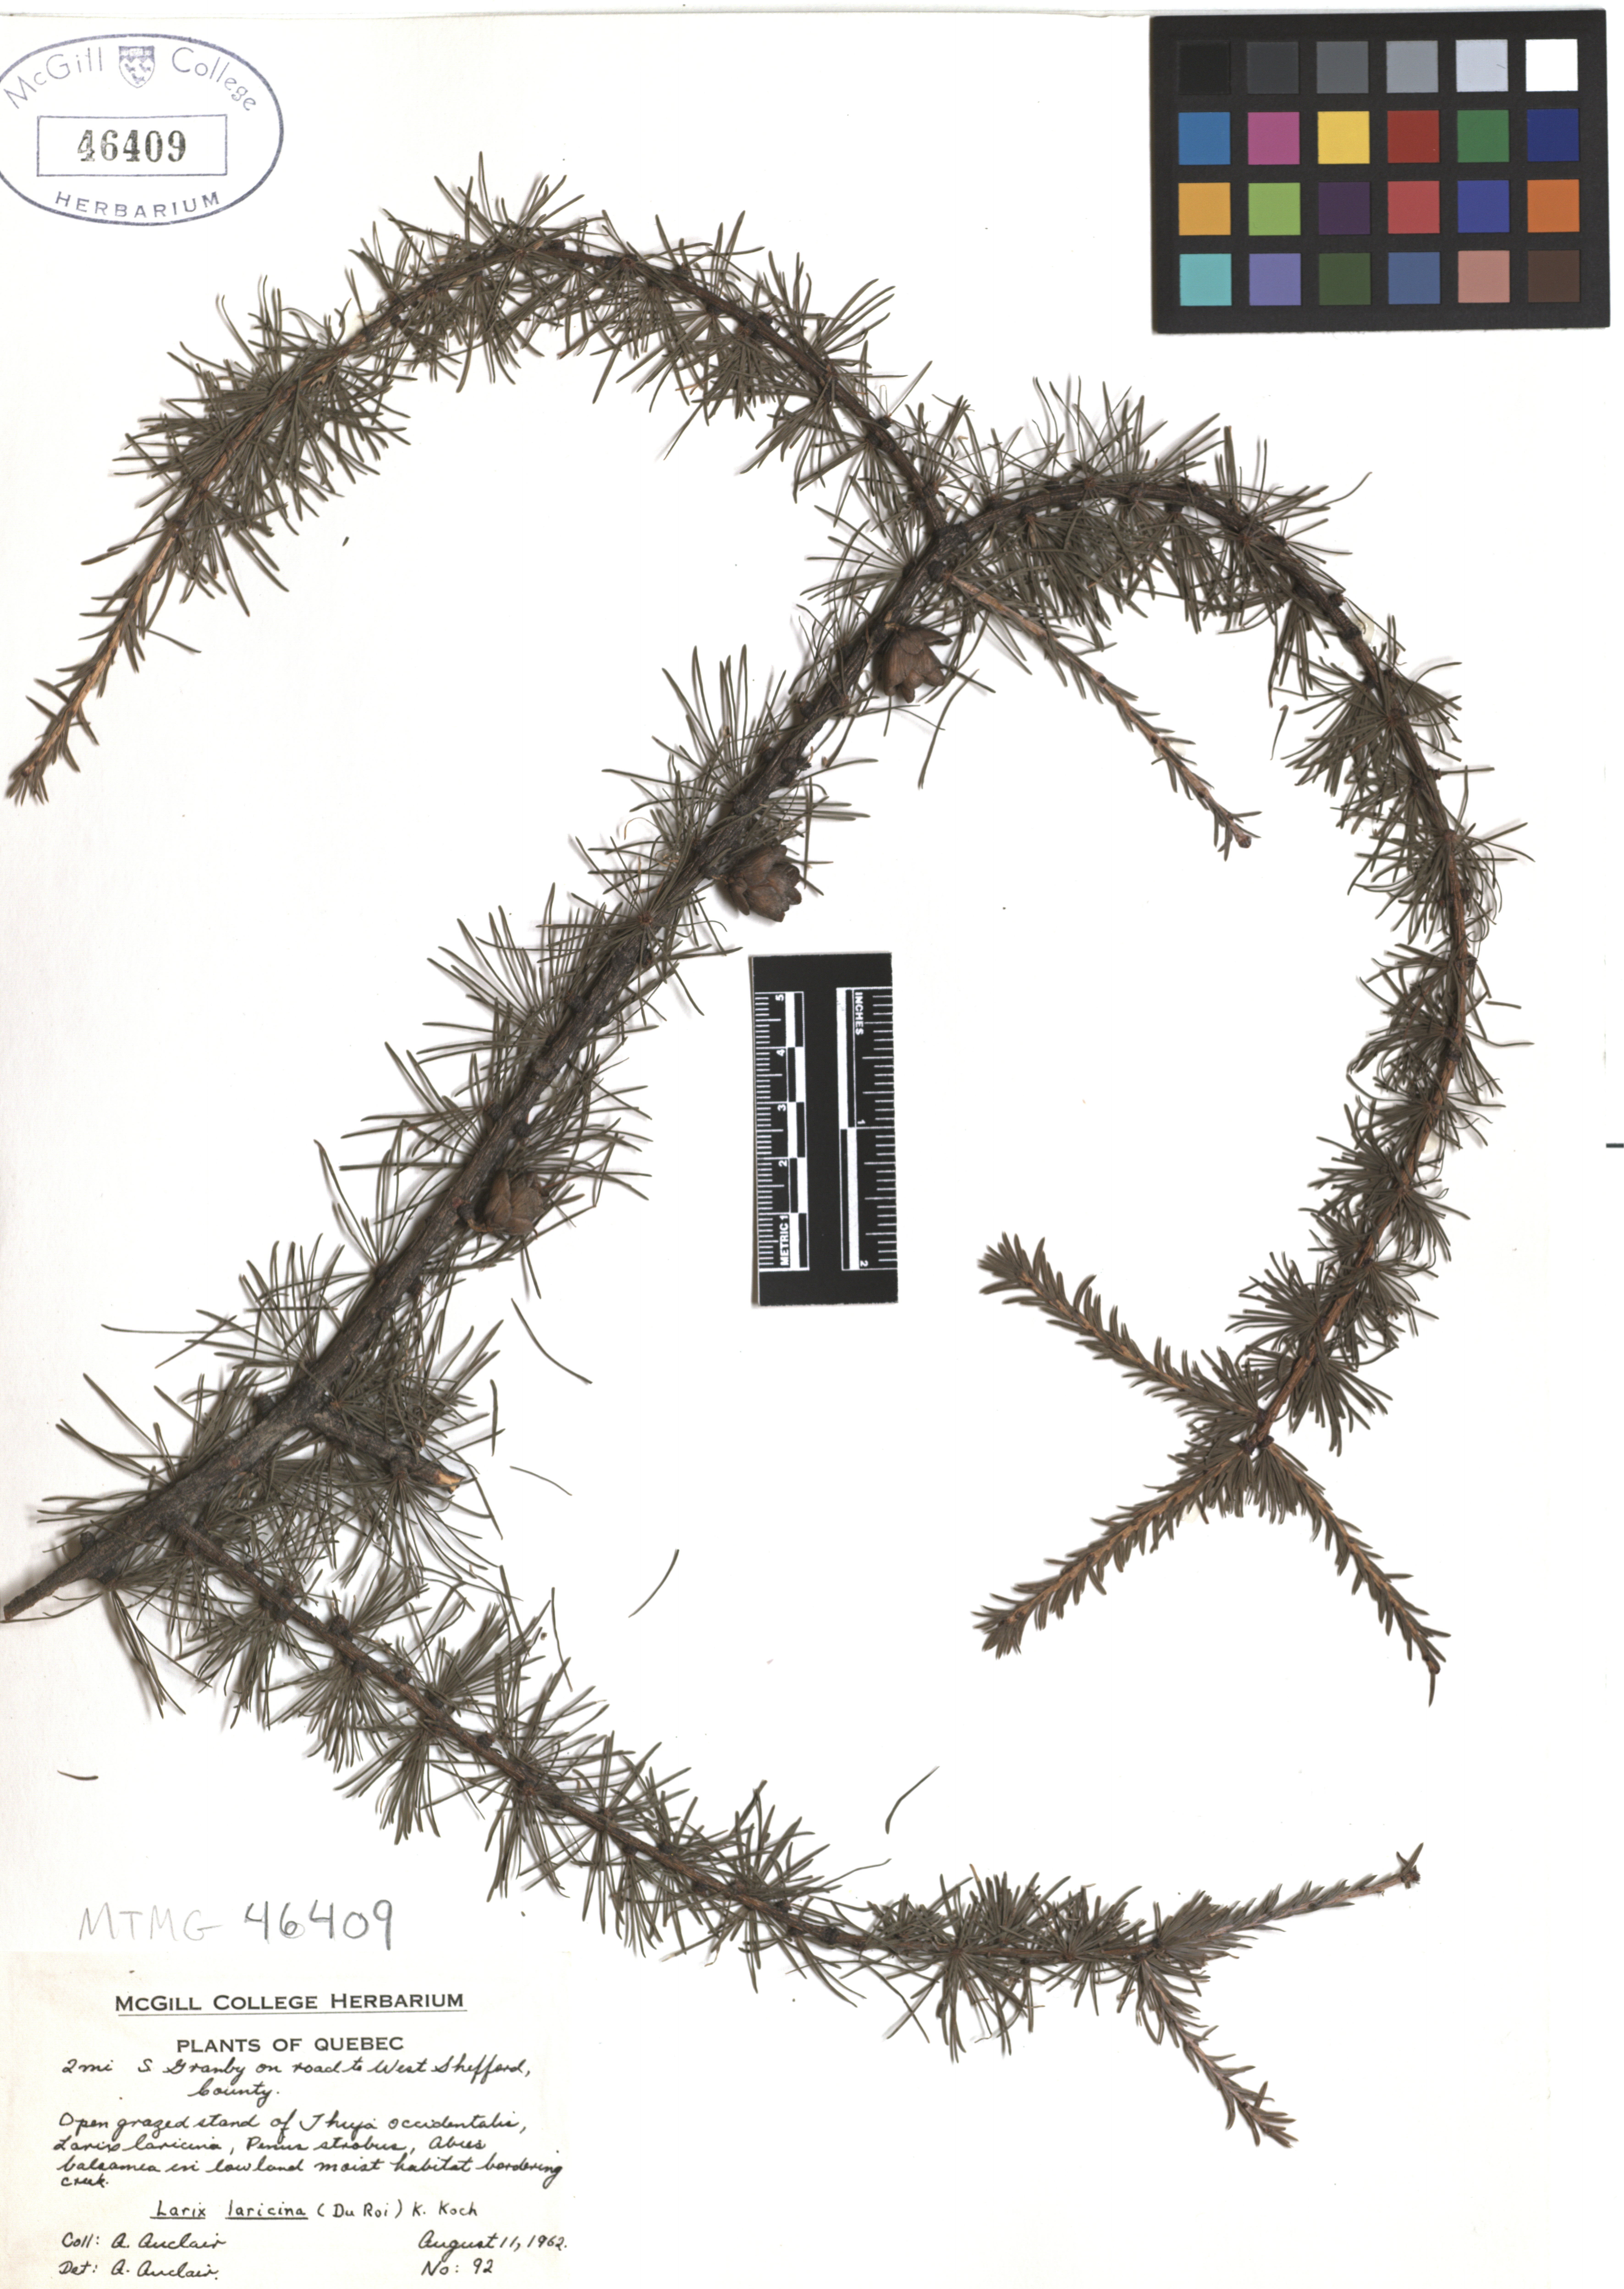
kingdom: Plantae
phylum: Tracheophyta
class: Pinopsida
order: Pinales
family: Pinaceae
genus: Larix
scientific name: Larix laricina
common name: American larch
